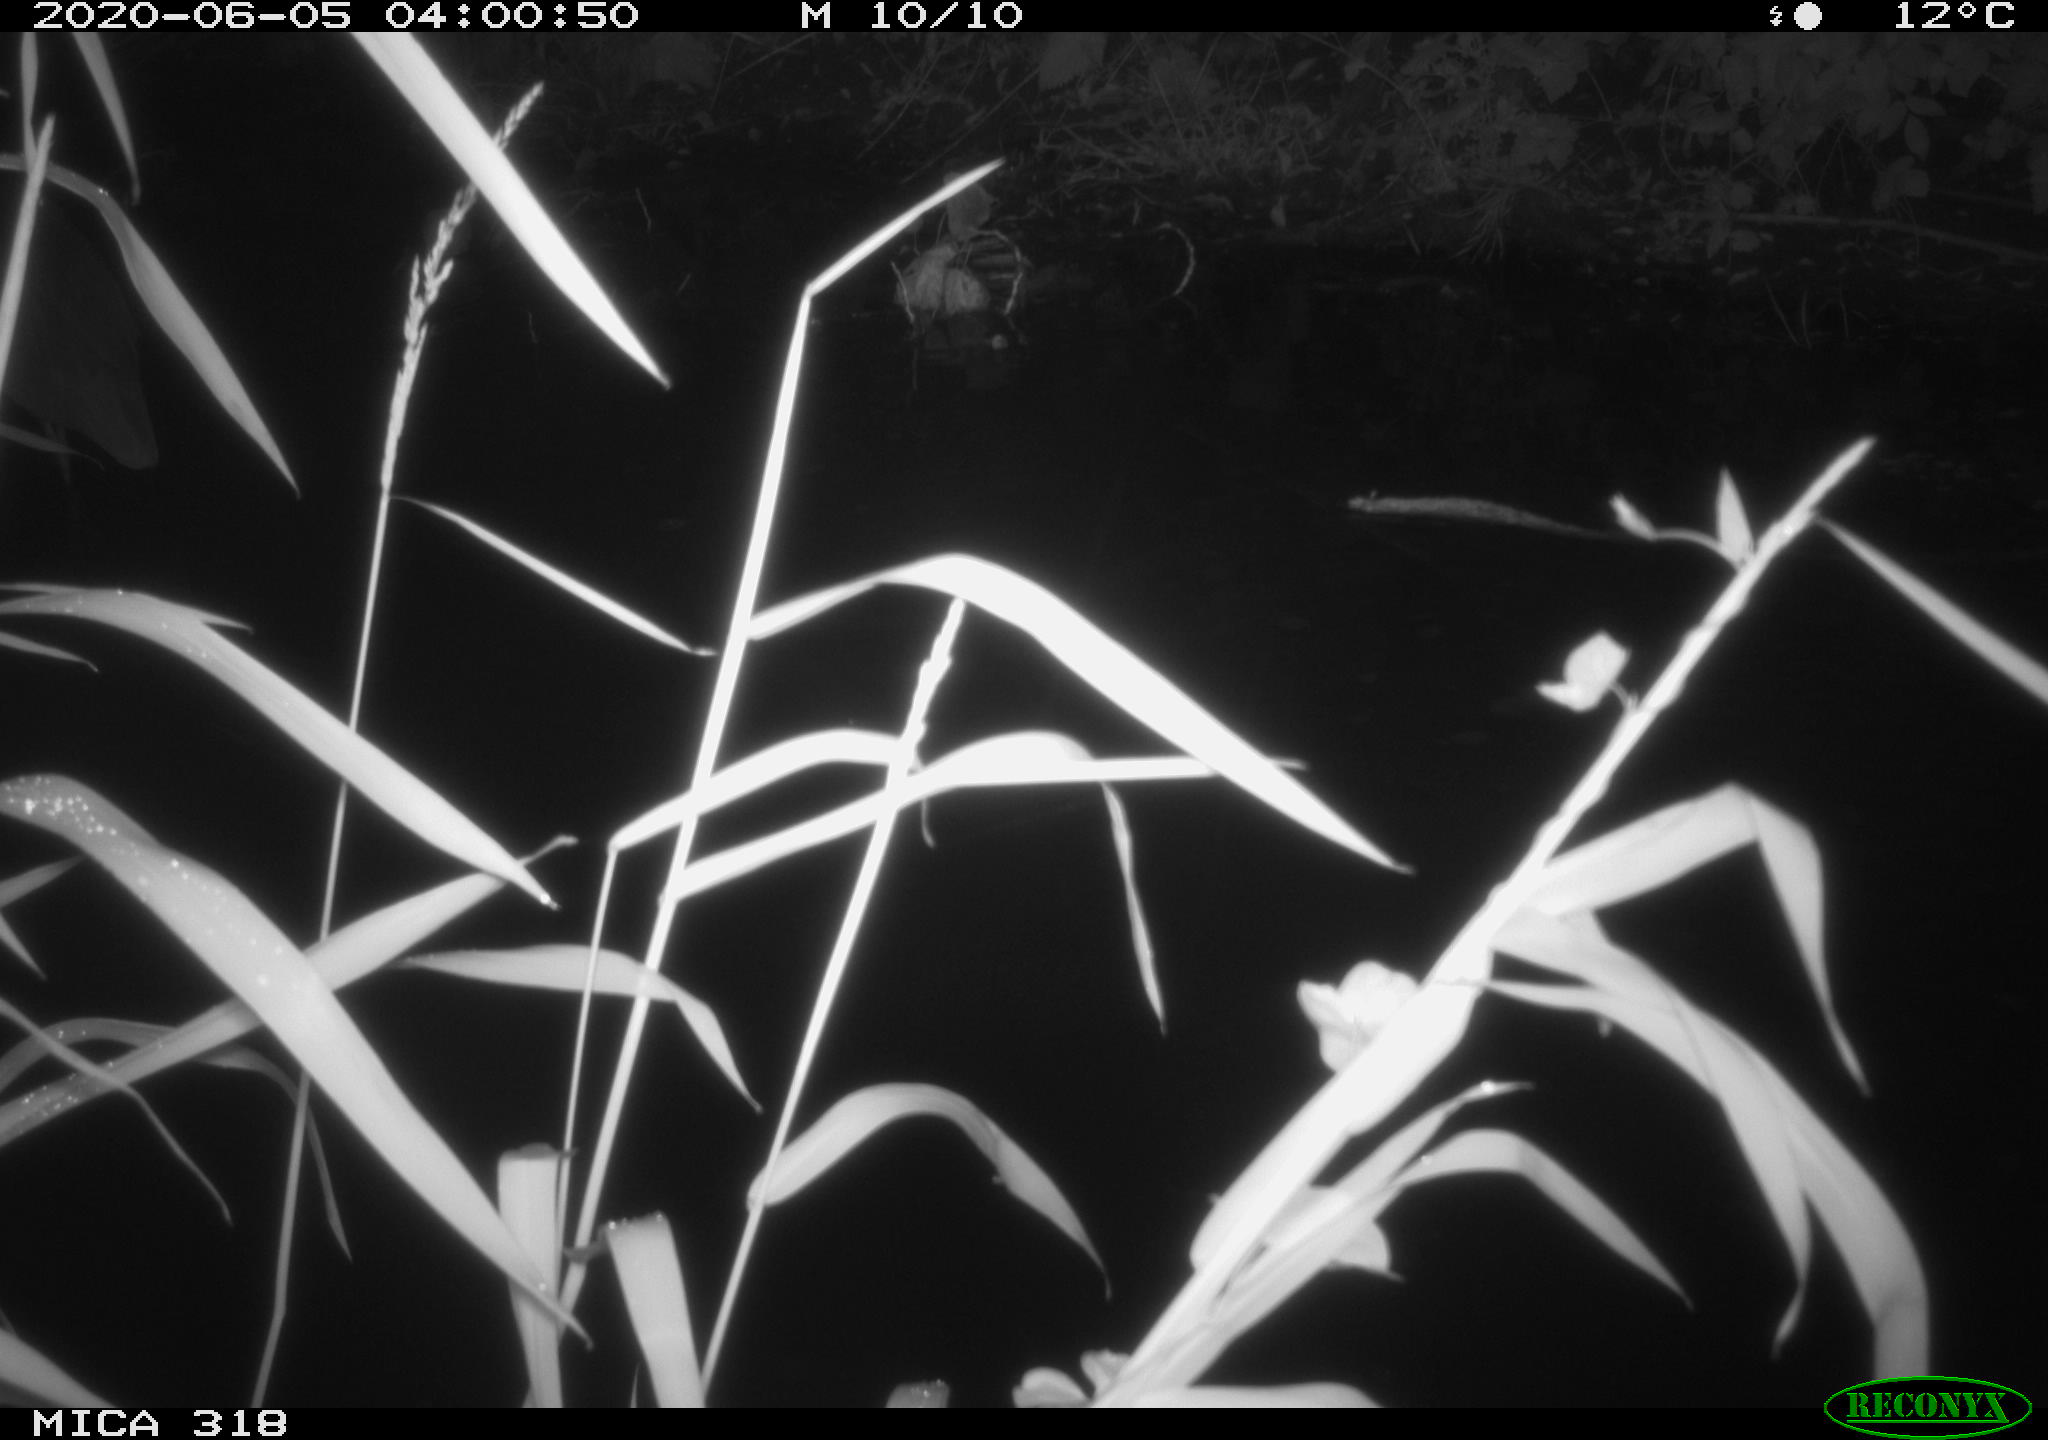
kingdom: Animalia
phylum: Chordata
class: Aves
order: Pelecaniformes
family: Ardeidae
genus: Ardea
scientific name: Ardea cinerea
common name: Grey heron
